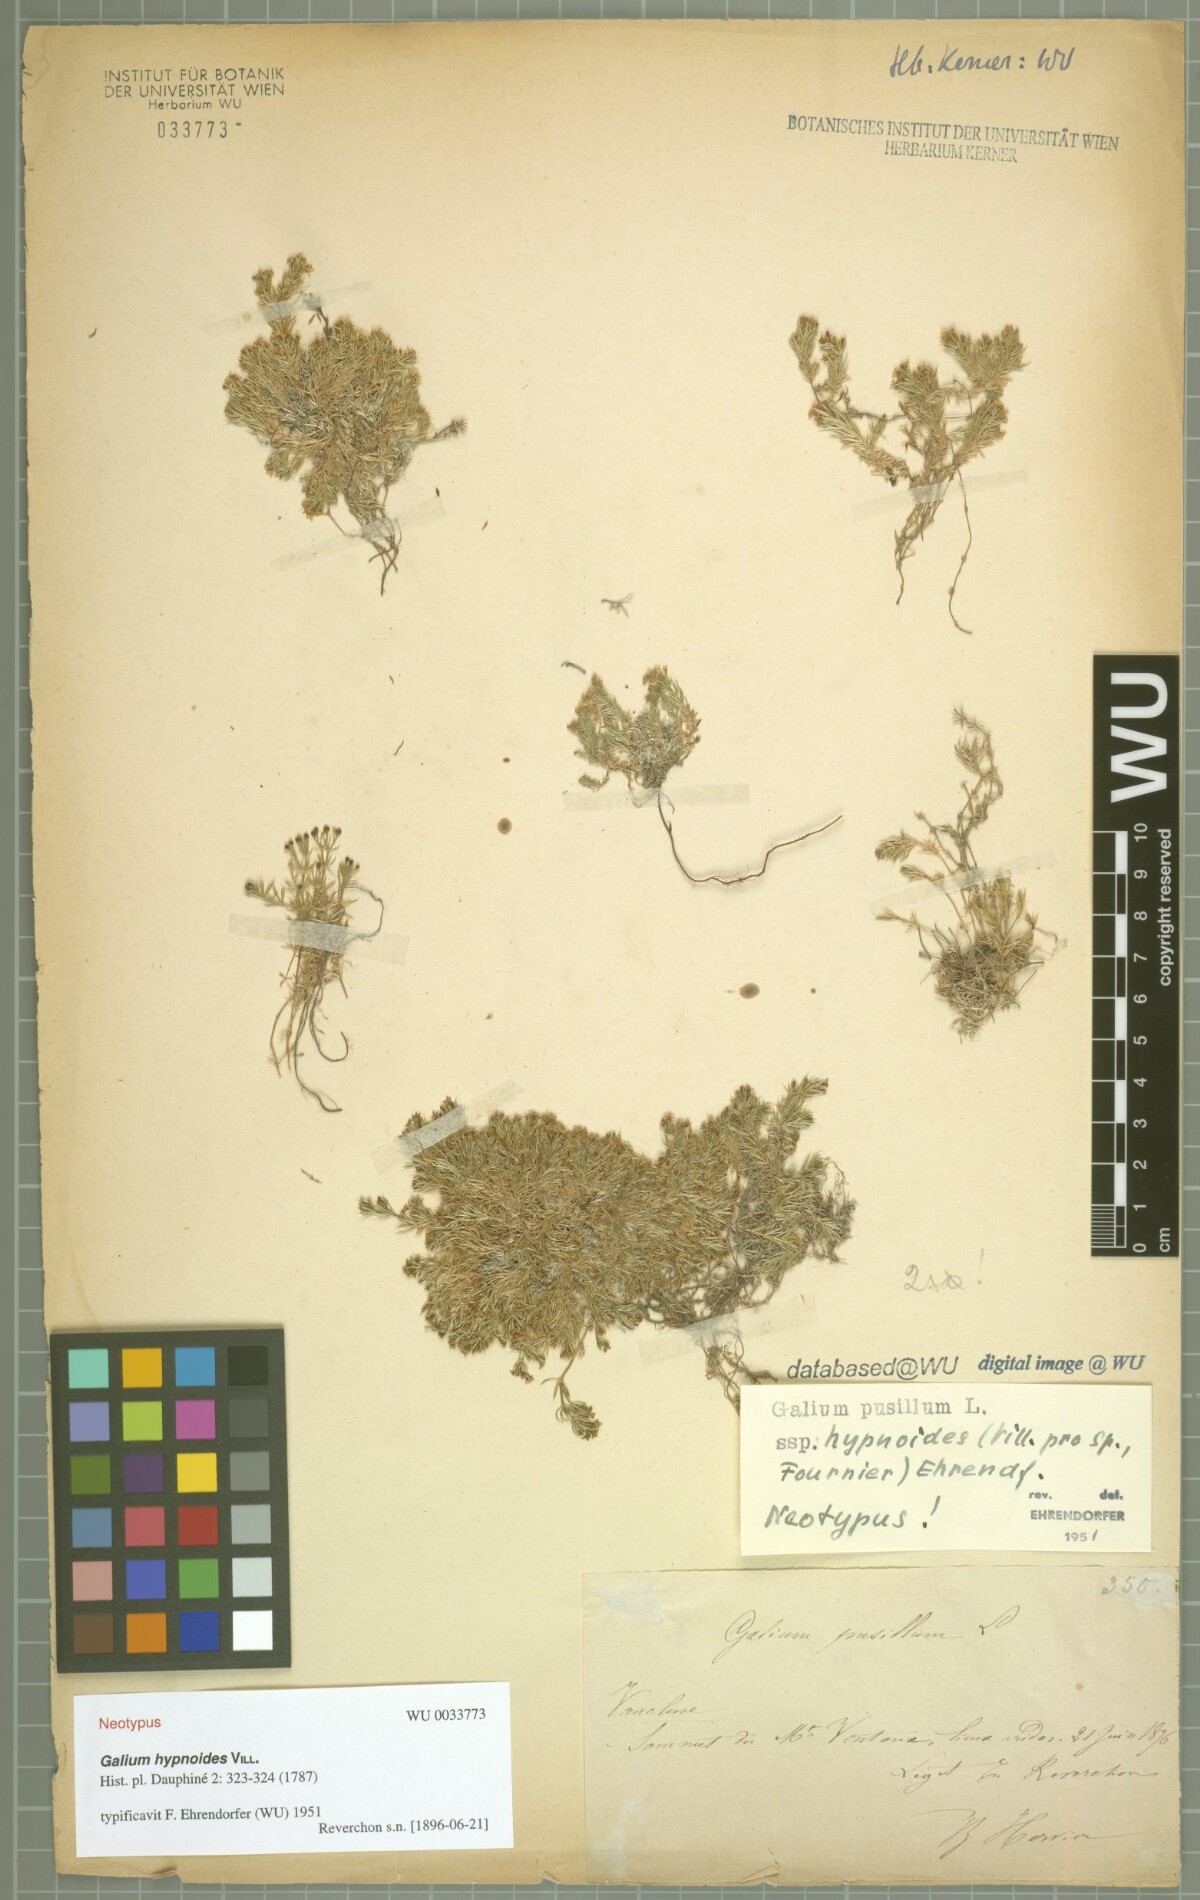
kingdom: Plantae
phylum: Tracheophyta
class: Magnoliopsida
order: Gentianales
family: Rubiaceae
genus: Galium
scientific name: Galium pusillum
